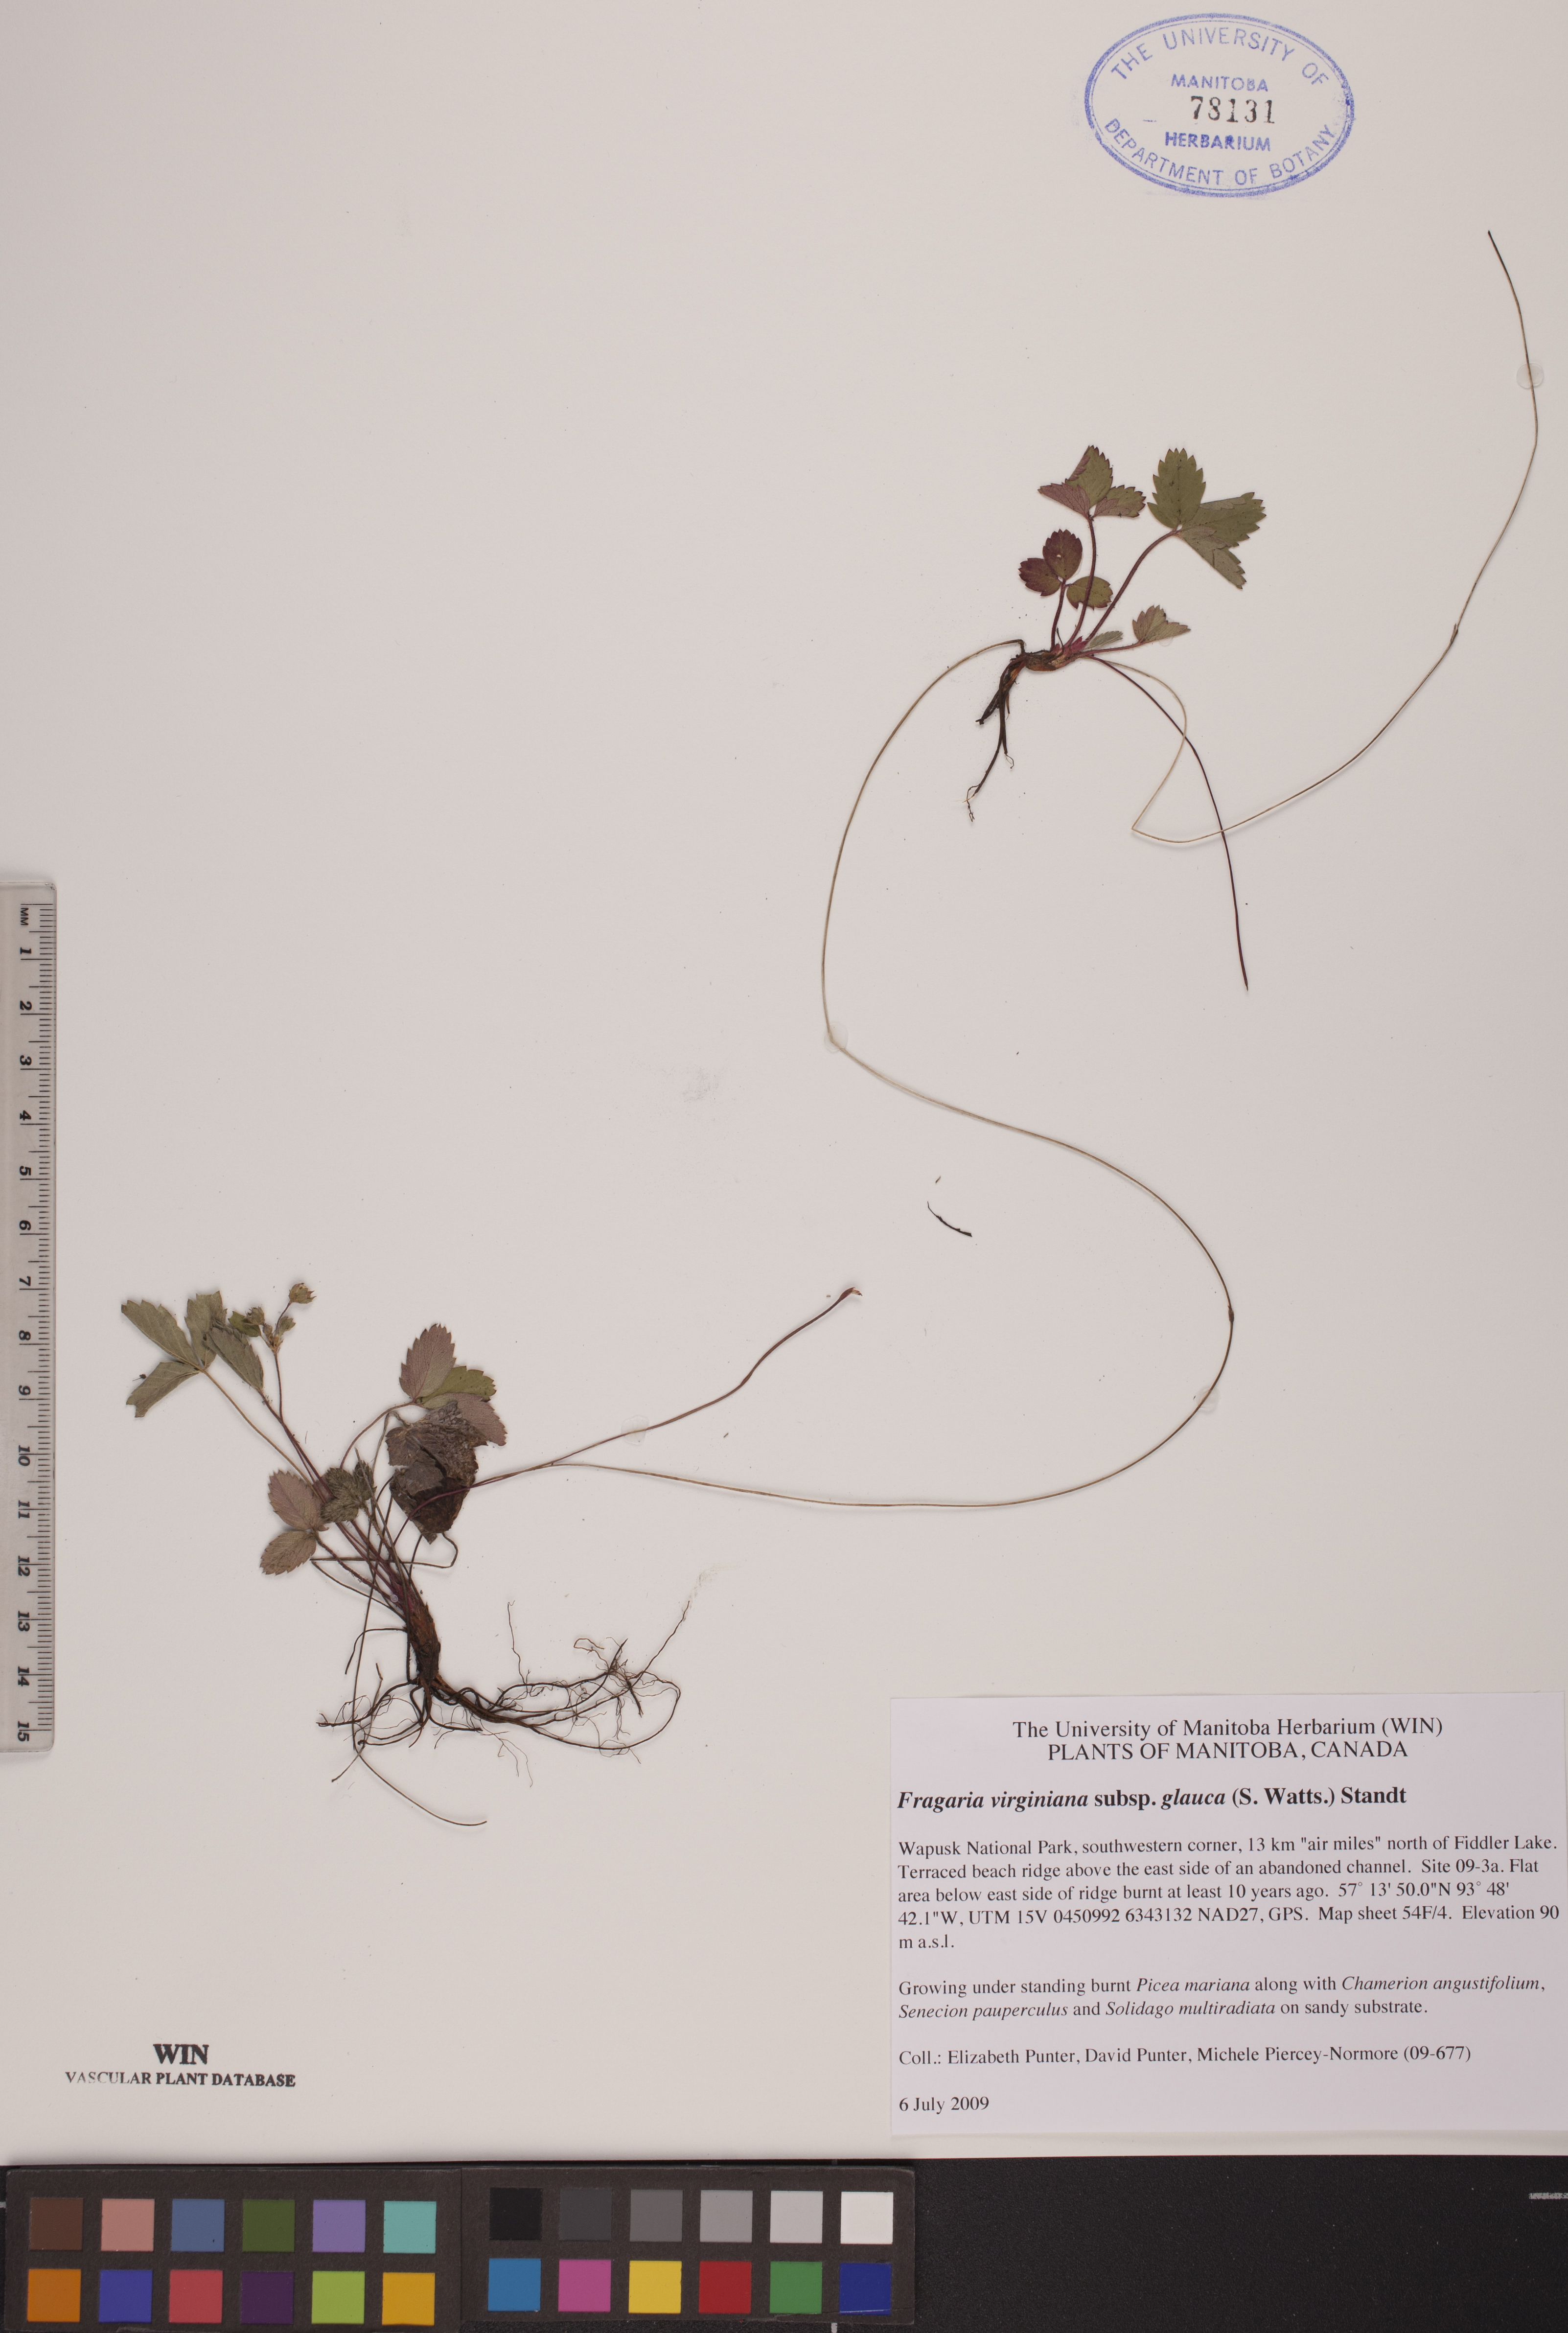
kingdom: Plantae
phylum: Tracheophyta
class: Magnoliopsida
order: Rosales
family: Rosaceae
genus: Fragaria
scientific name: Fragaria virginiana
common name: Thickleaved wild strawberry
